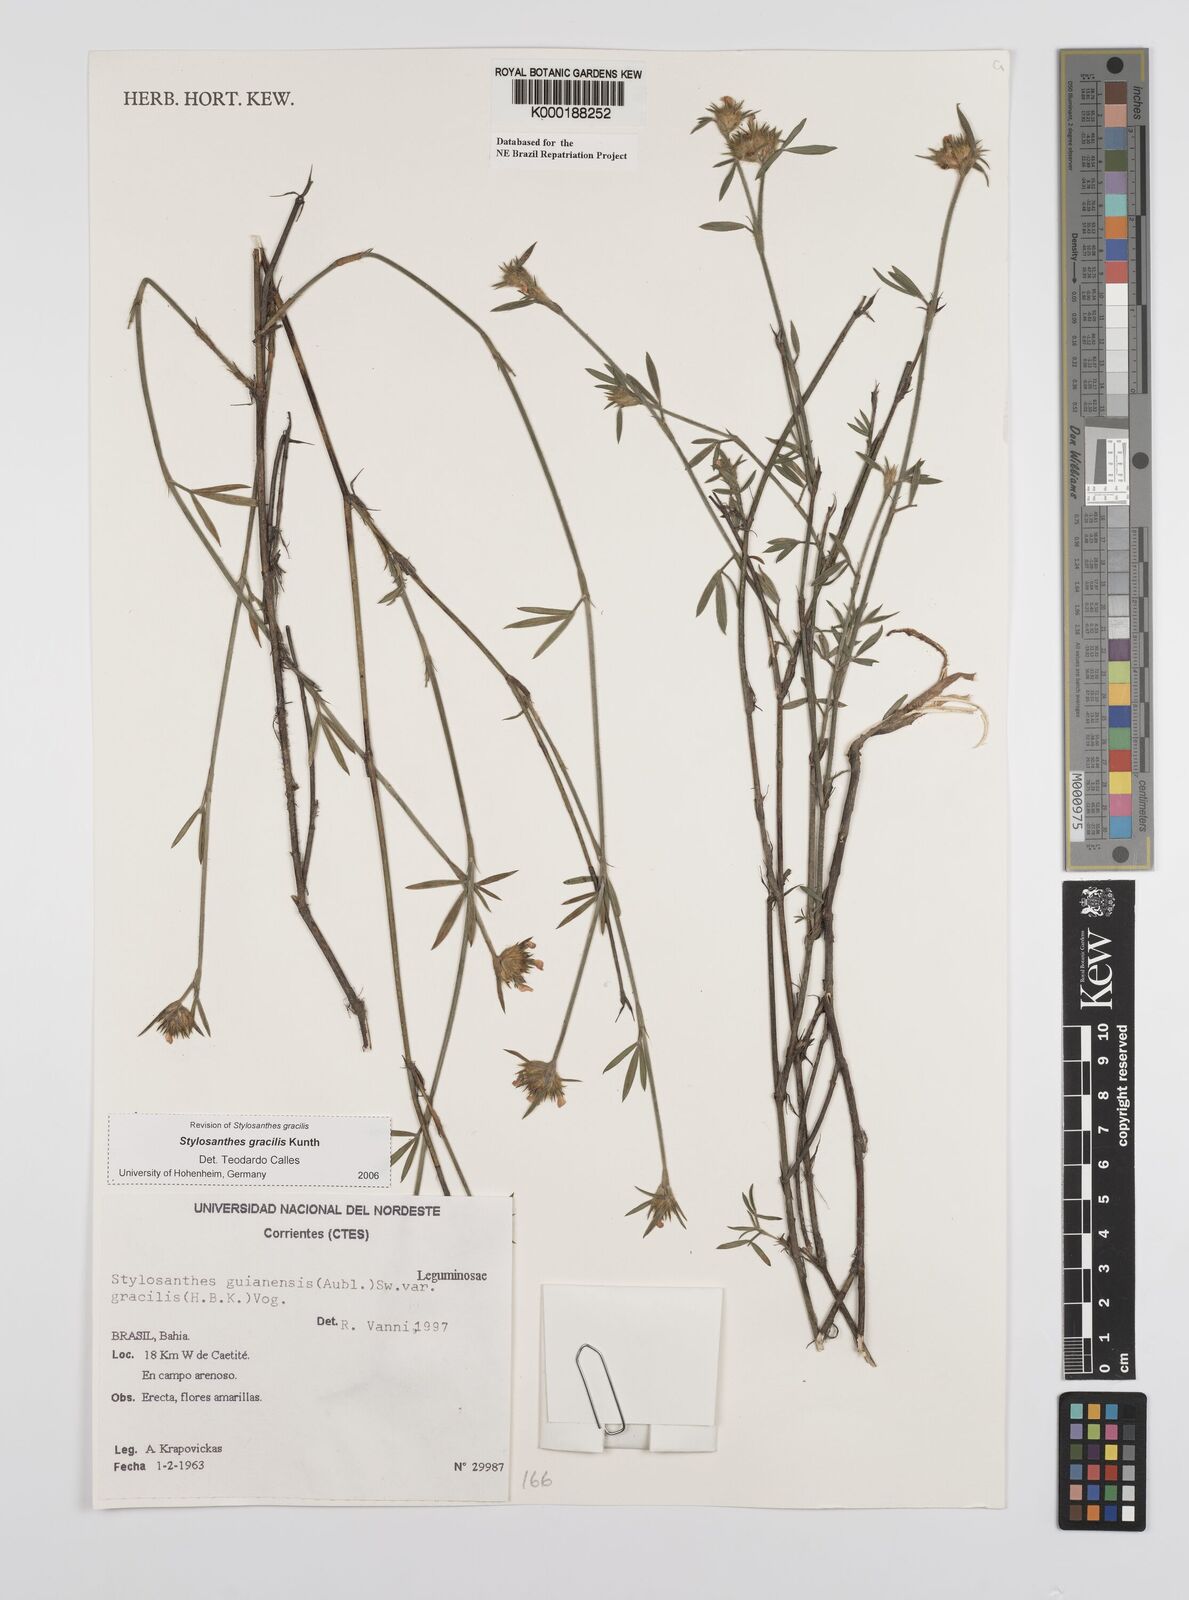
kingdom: Plantae
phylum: Tracheophyta
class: Magnoliopsida
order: Fabales
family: Fabaceae
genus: Stylosanthes
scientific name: Stylosanthes guianensis
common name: Pencil flower
